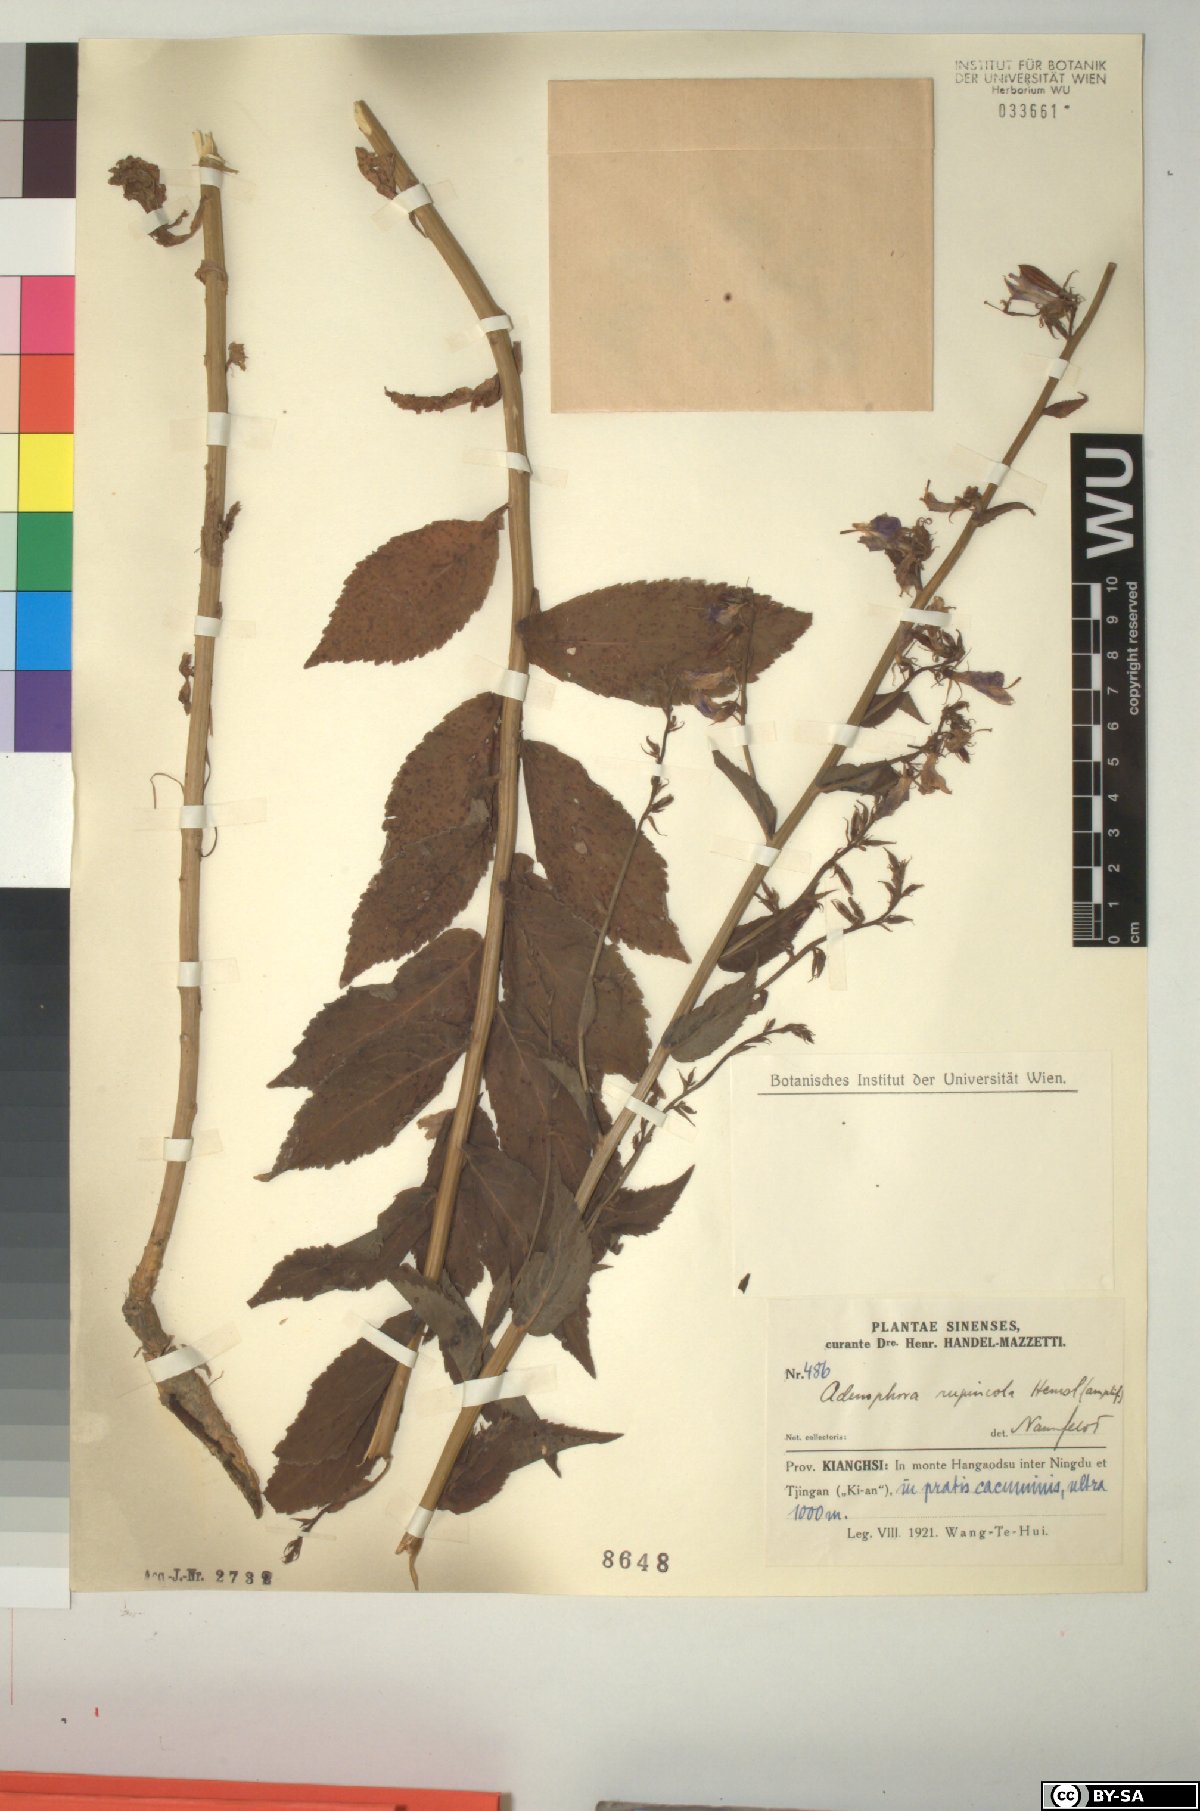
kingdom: Plantae
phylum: Tracheophyta
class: Magnoliopsida
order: Asterales
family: Campanulaceae
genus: Adenophora
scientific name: Adenophora rupincola
